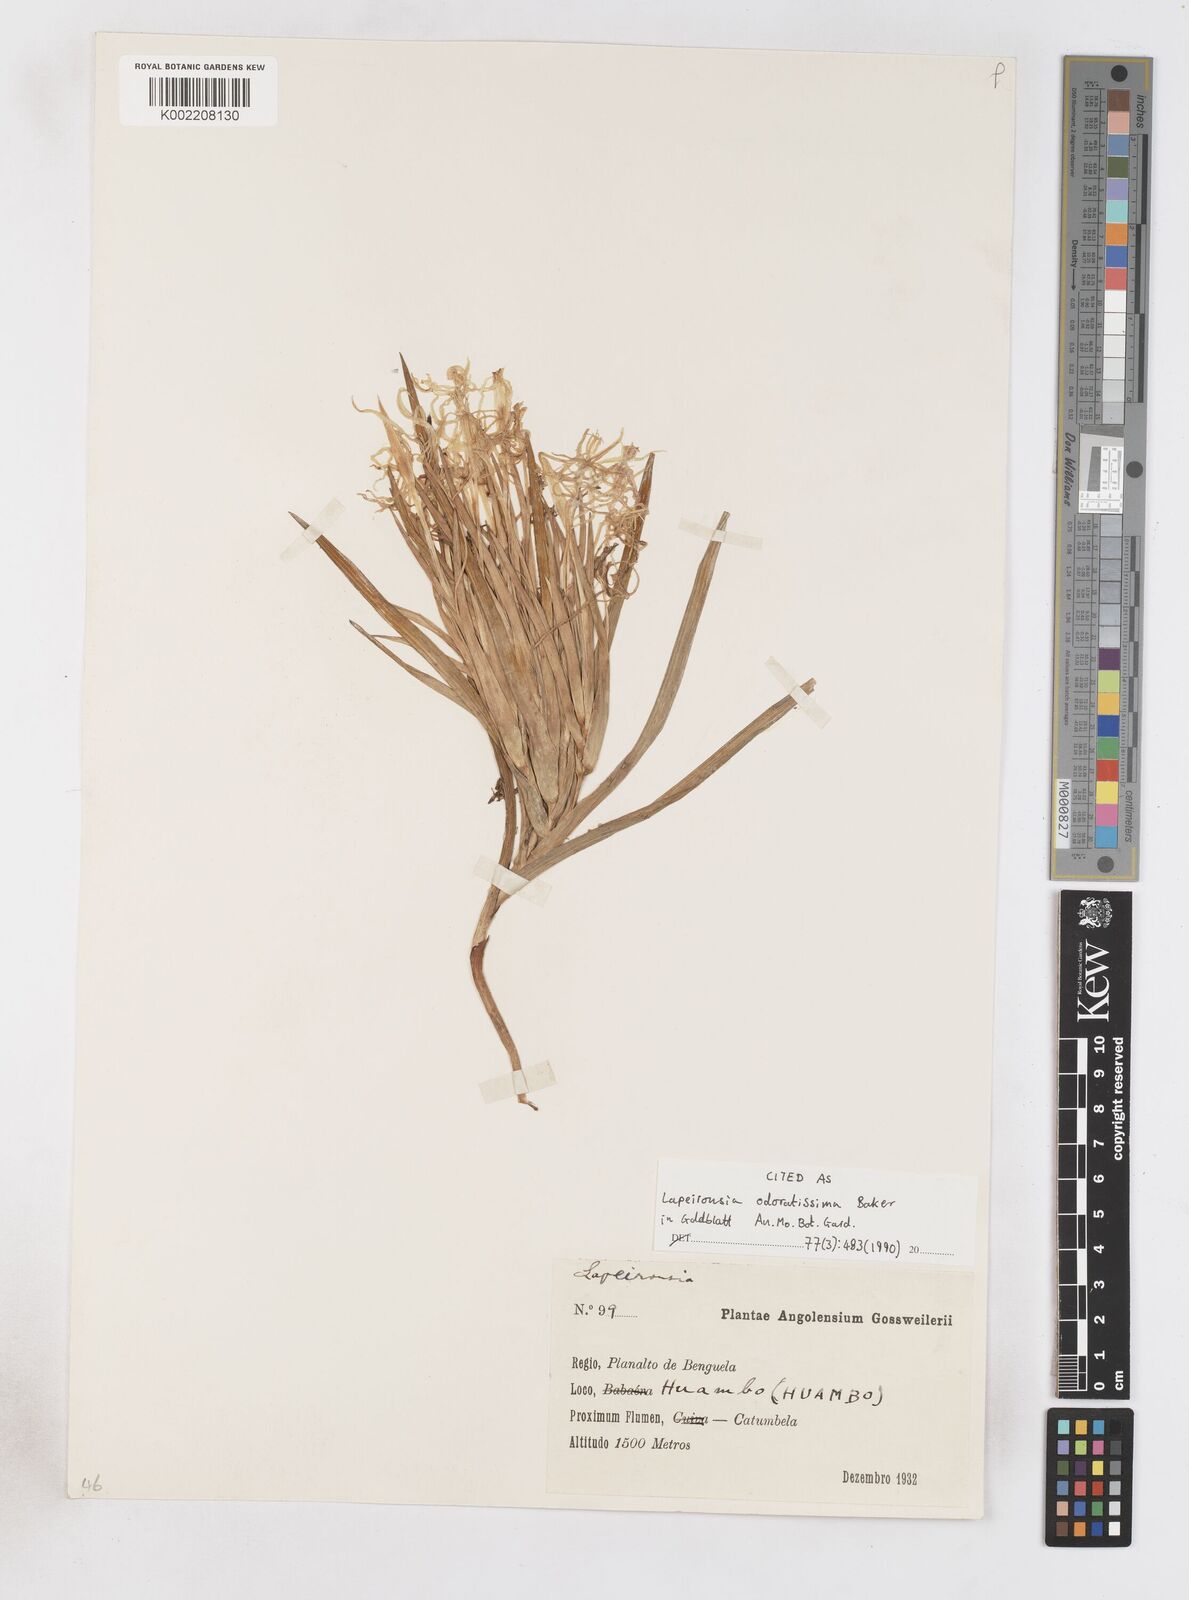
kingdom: Plantae
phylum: Tracheophyta
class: Liliopsida
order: Asparagales
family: Iridaceae
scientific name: Iridaceae
